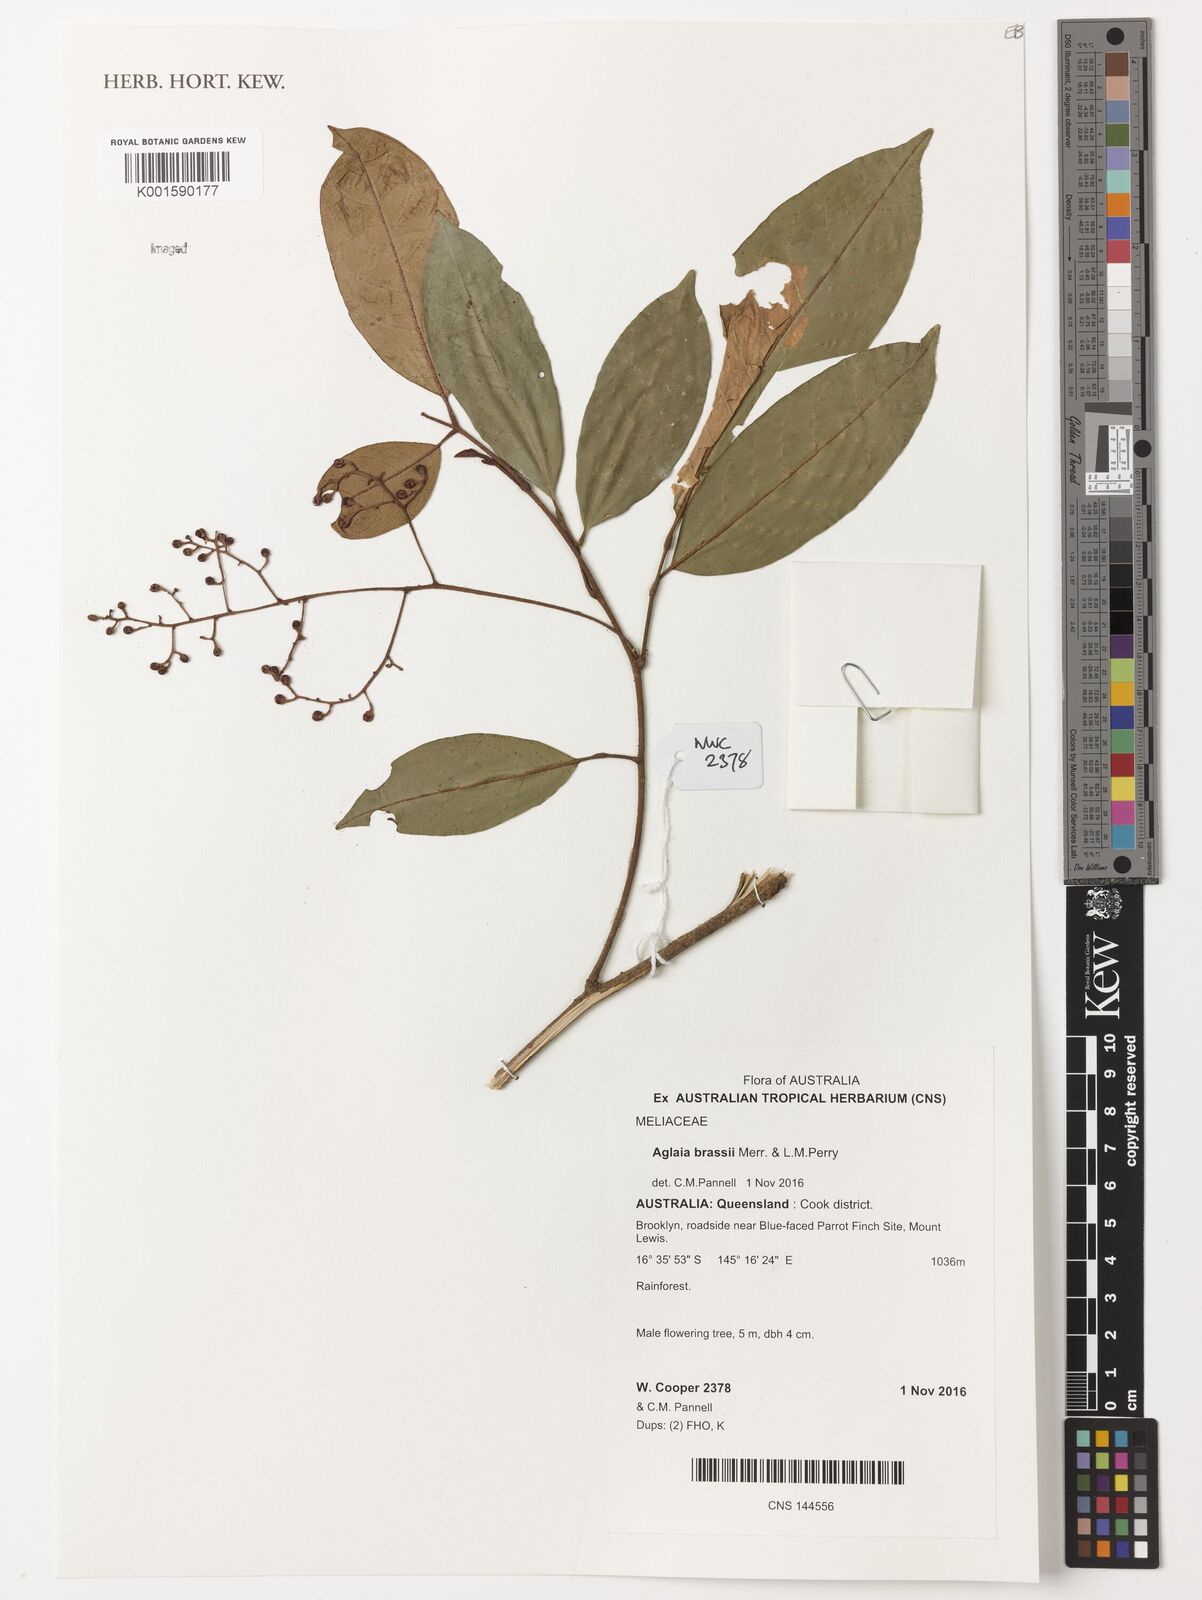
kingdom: Plantae
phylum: Tracheophyta
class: Magnoliopsida
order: Sapindales
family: Meliaceae
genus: Aglaia
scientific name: Aglaia brassii
